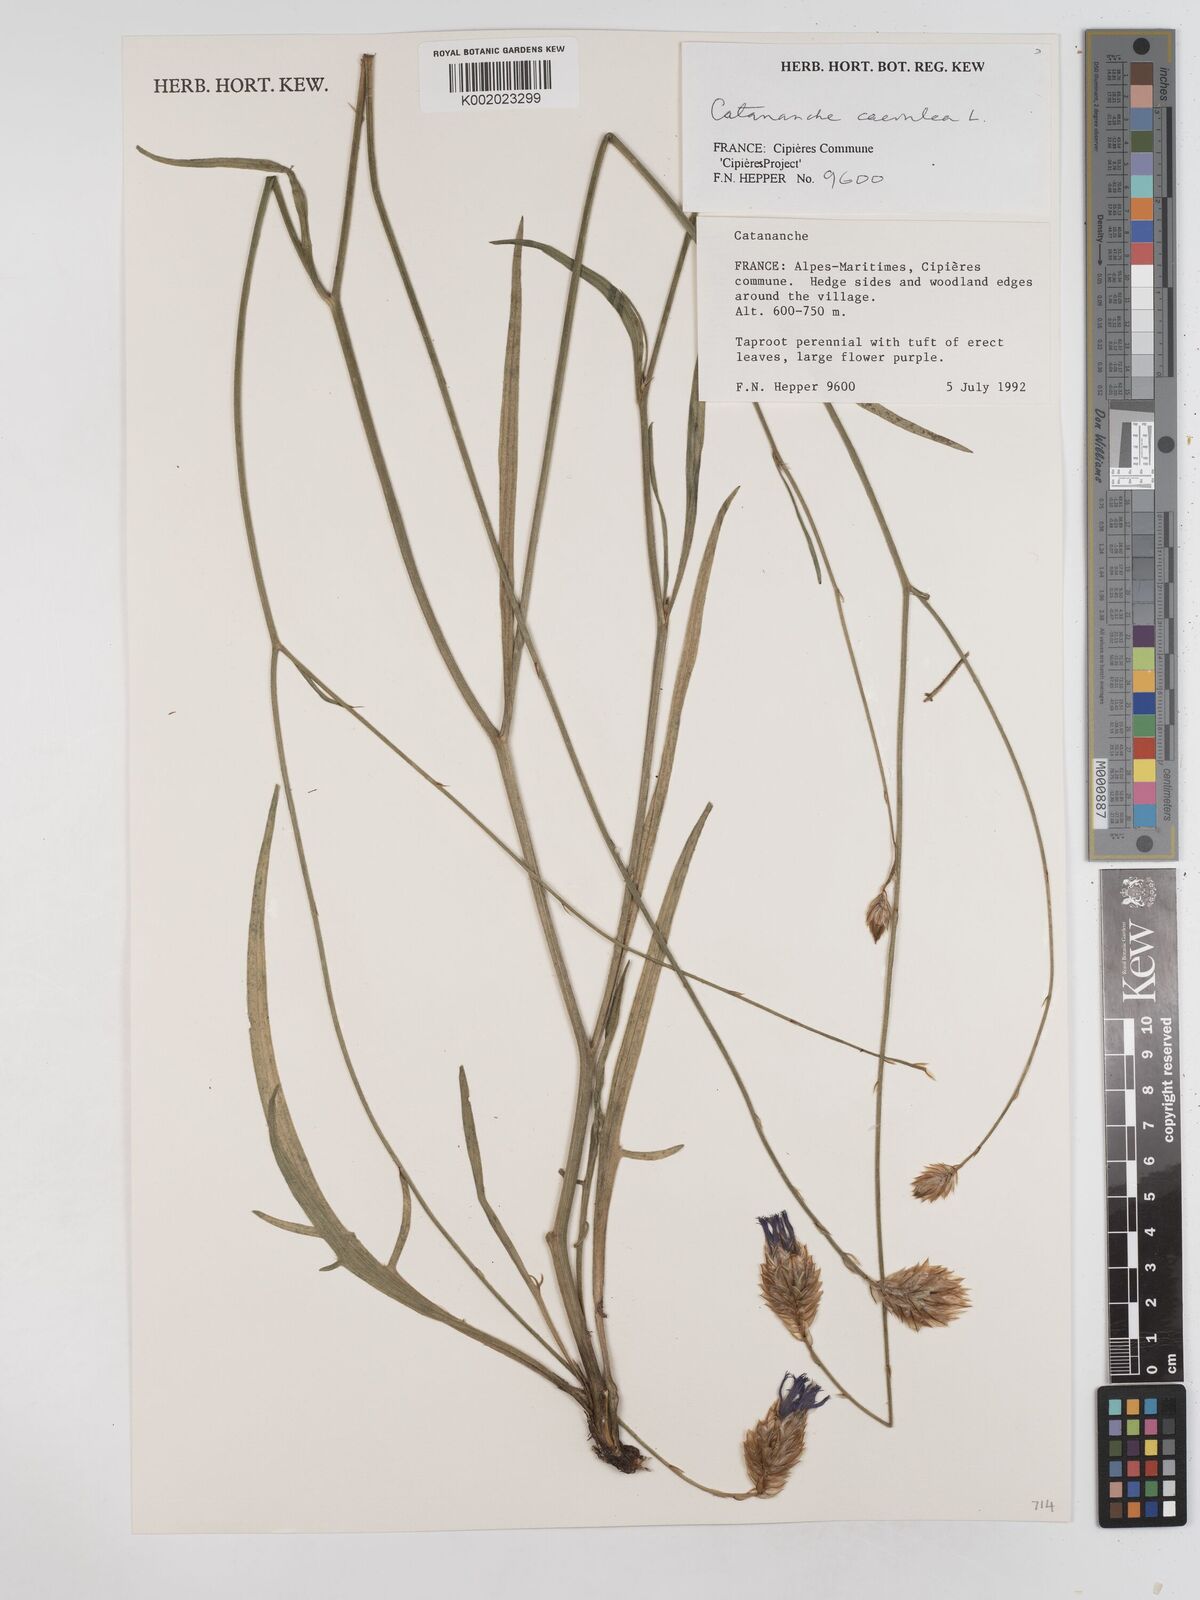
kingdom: Plantae
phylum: Tracheophyta
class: Magnoliopsida
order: Asterales
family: Asteraceae
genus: Catananche
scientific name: Catananche caerulea
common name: Blue cupidone
